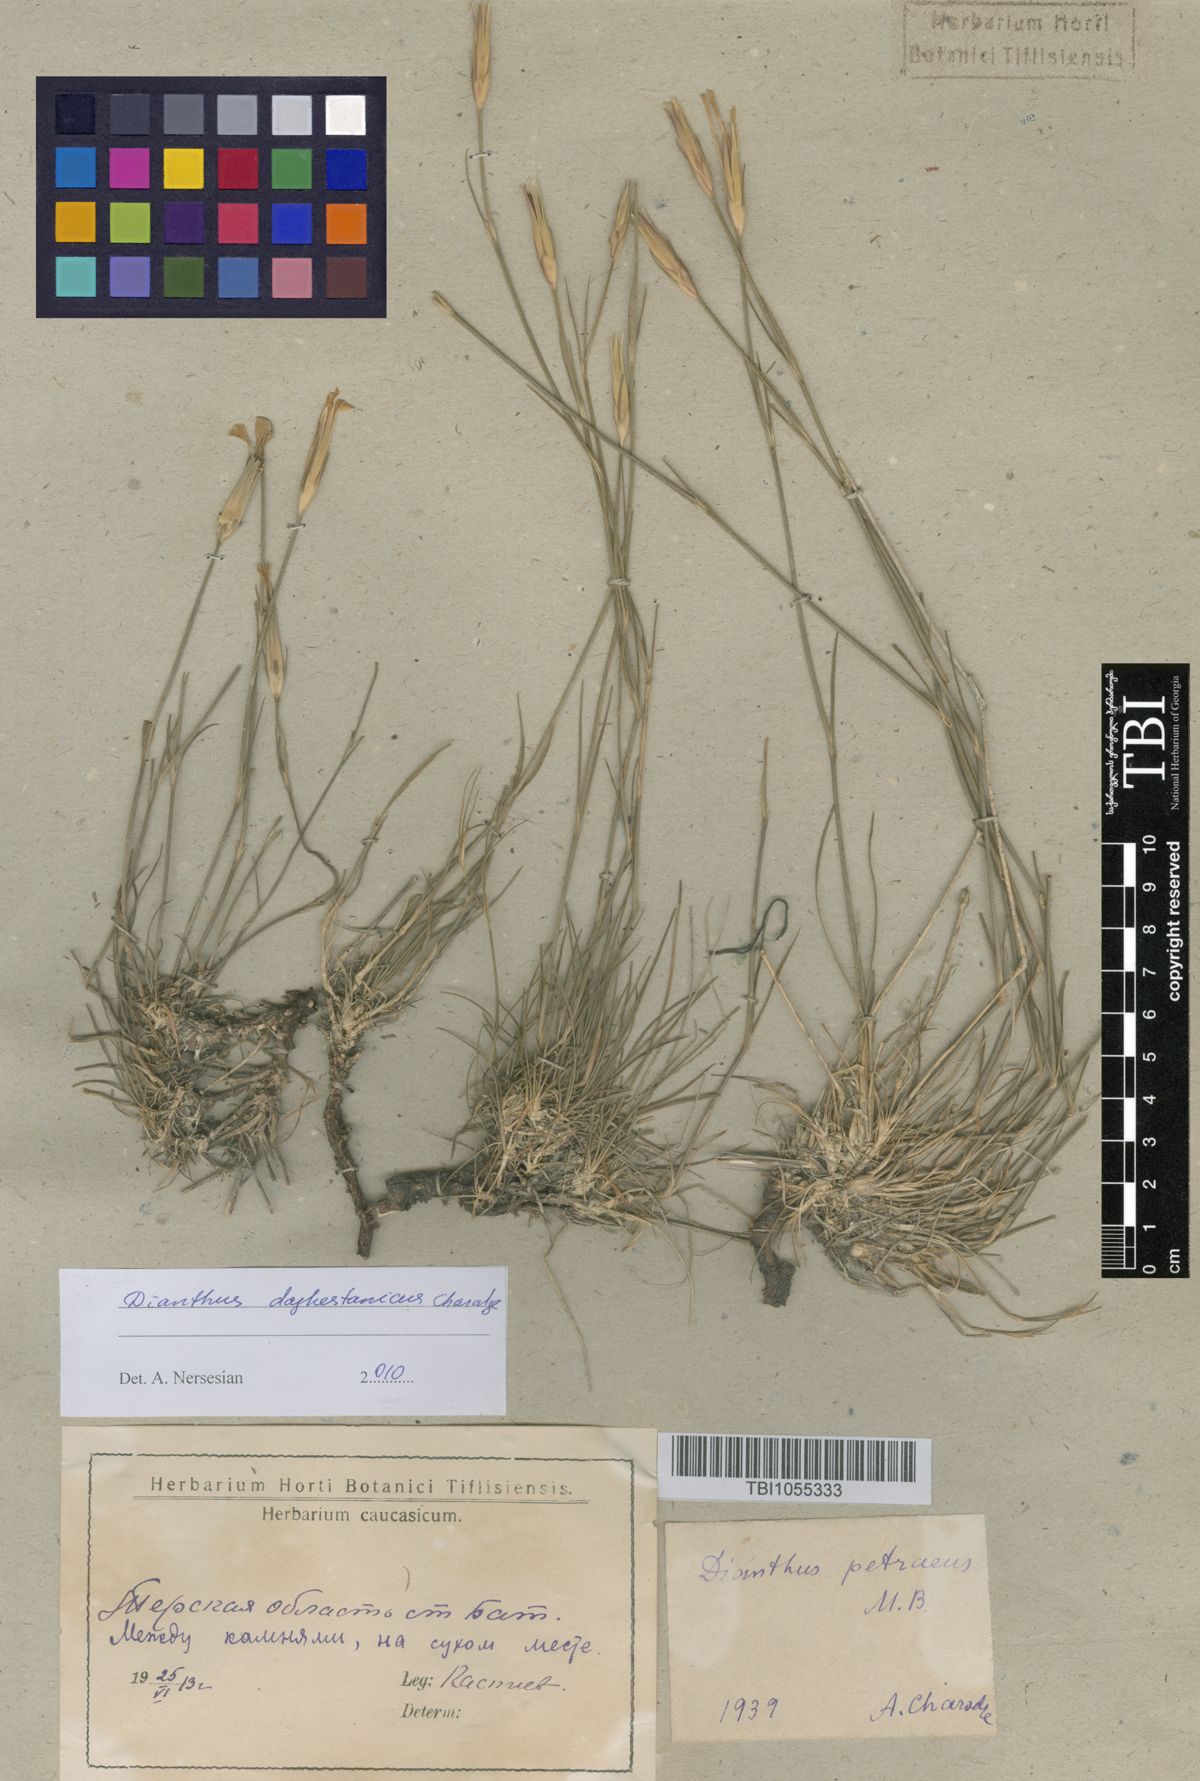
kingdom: Plantae
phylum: Tracheophyta
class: Magnoliopsida
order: Caryophyllales
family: Caryophyllaceae
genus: Dianthus
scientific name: Dianthus cretaceus
